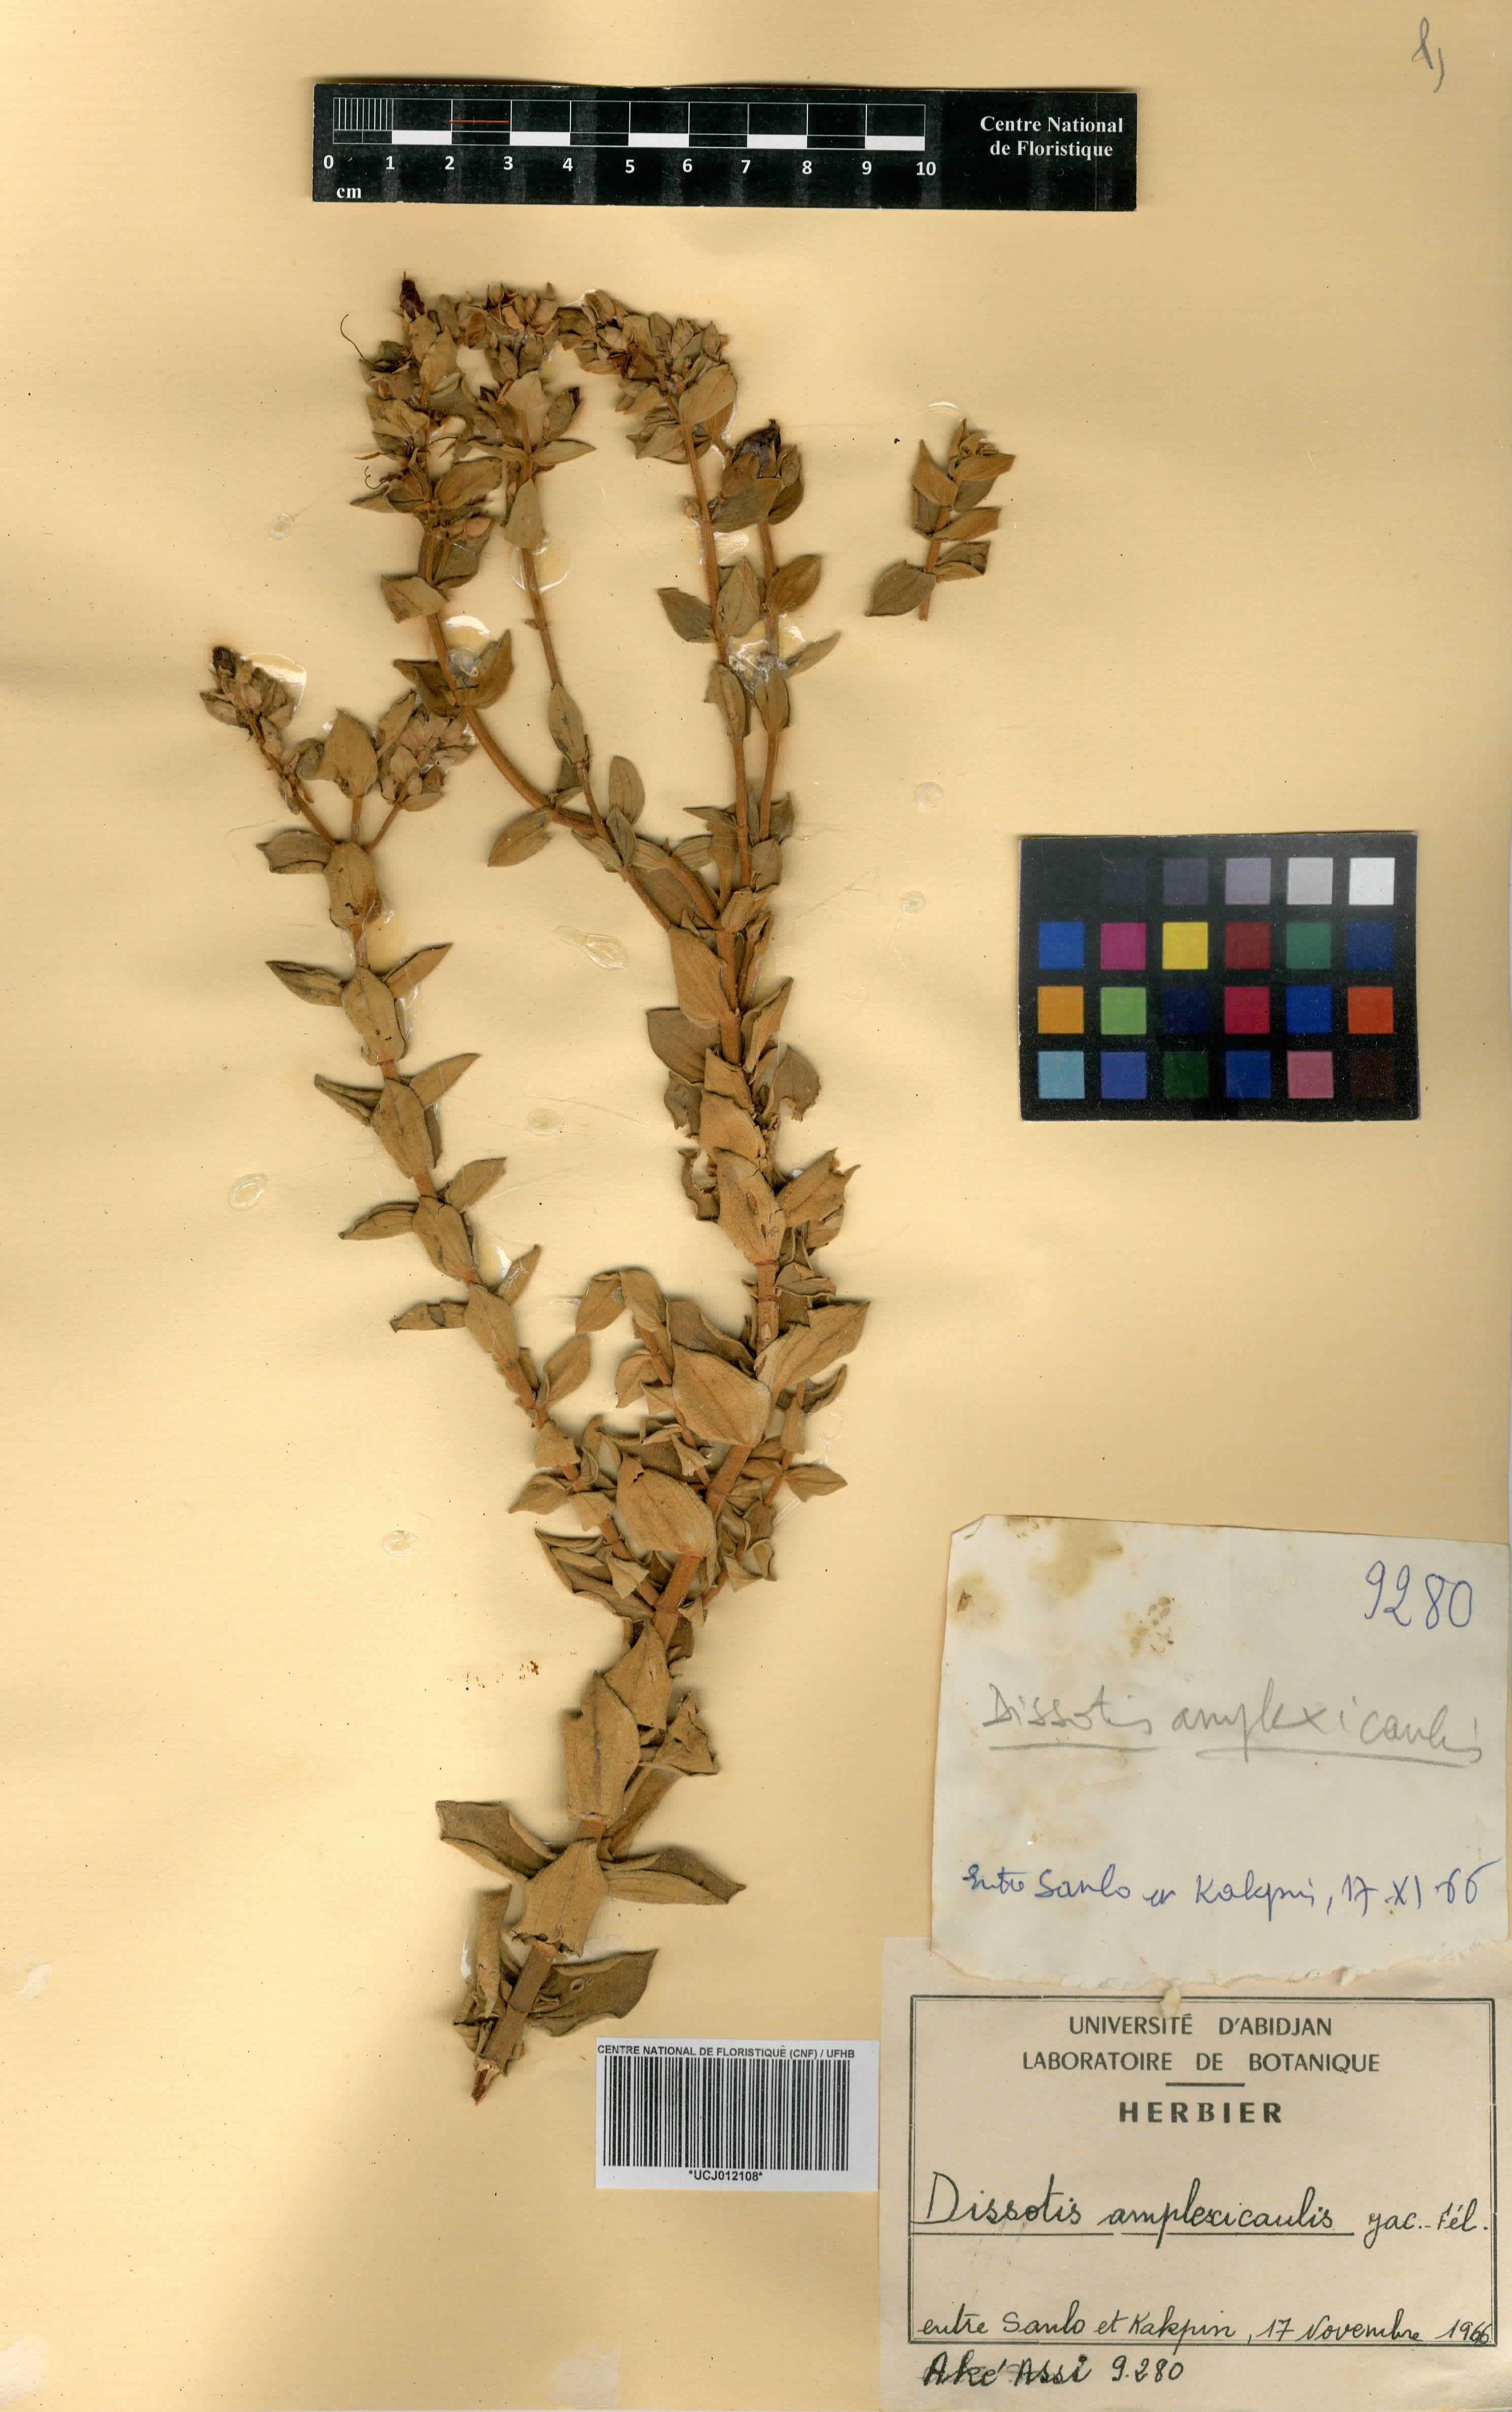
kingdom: Plantae
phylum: Tracheophyta
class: Magnoliopsida
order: Myrtales
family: Melastomataceae
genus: Argyrella
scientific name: Argyrella amplexicaulis
